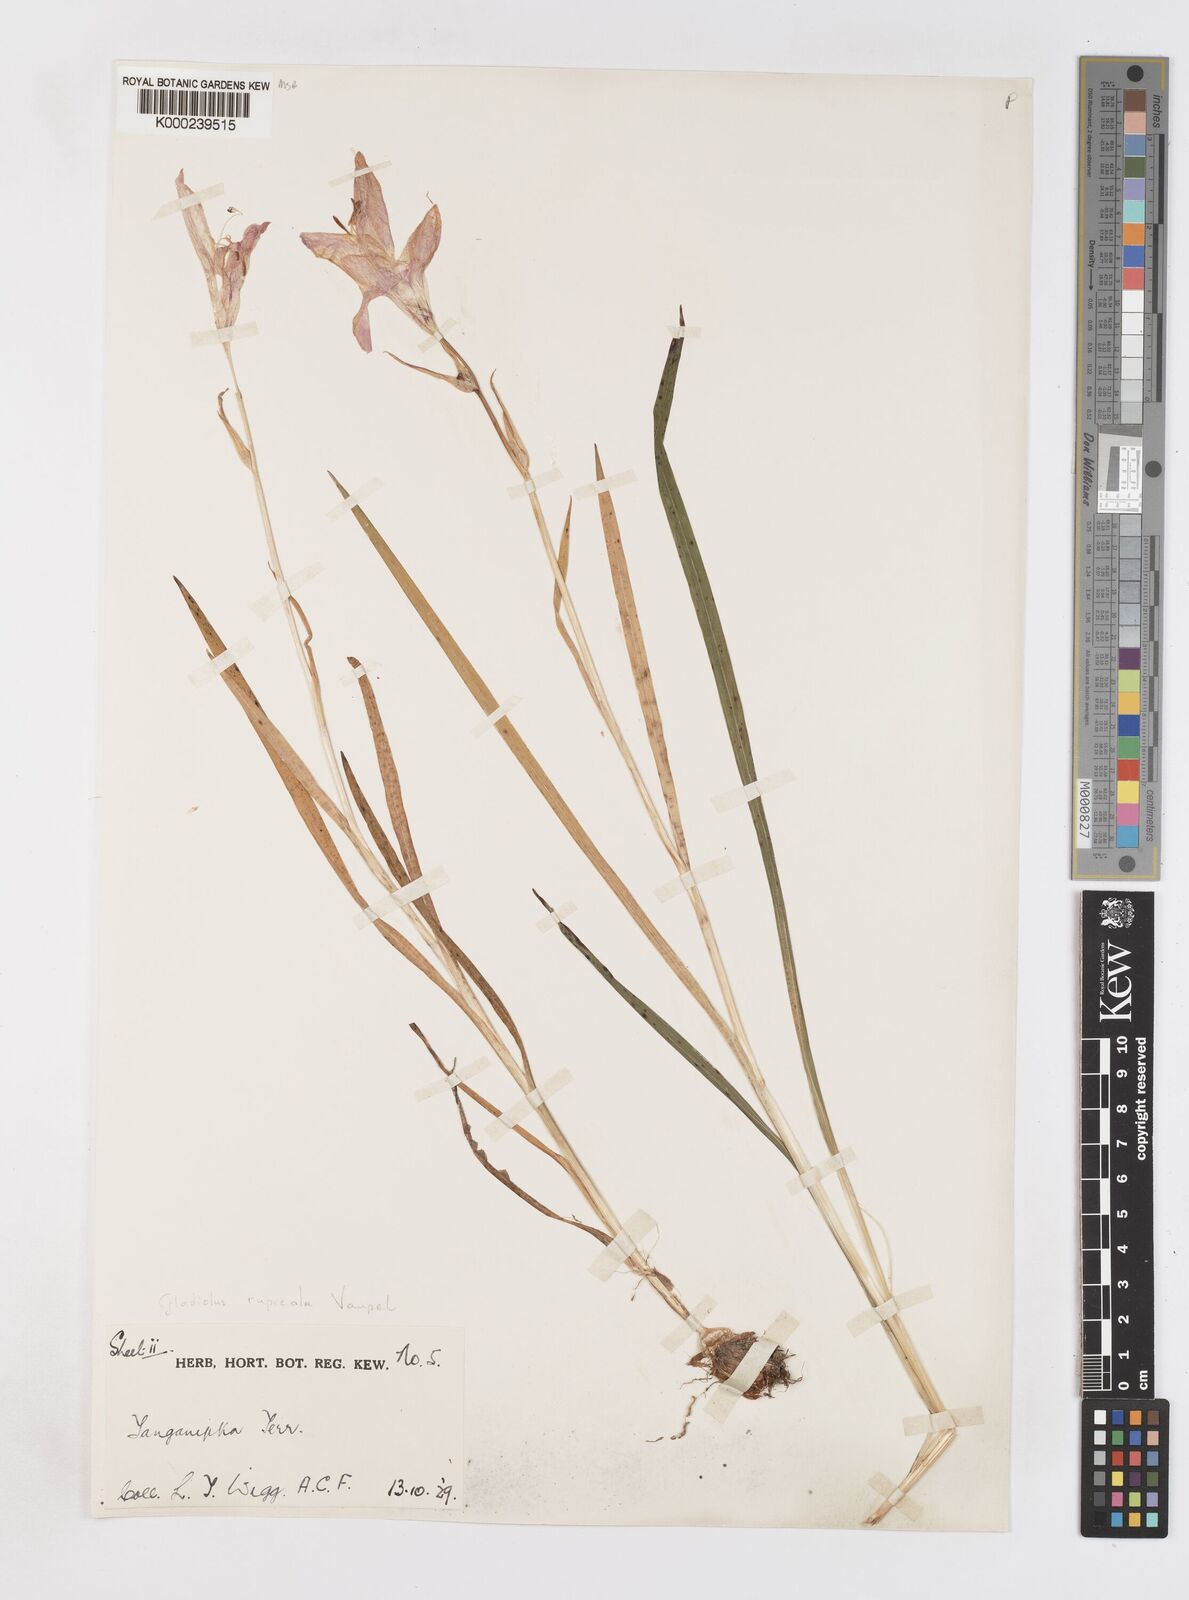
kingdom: Plantae
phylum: Tracheophyta
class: Liliopsida
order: Asparagales
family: Iridaceae
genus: Gladiolus
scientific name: Gladiolus rupicola
